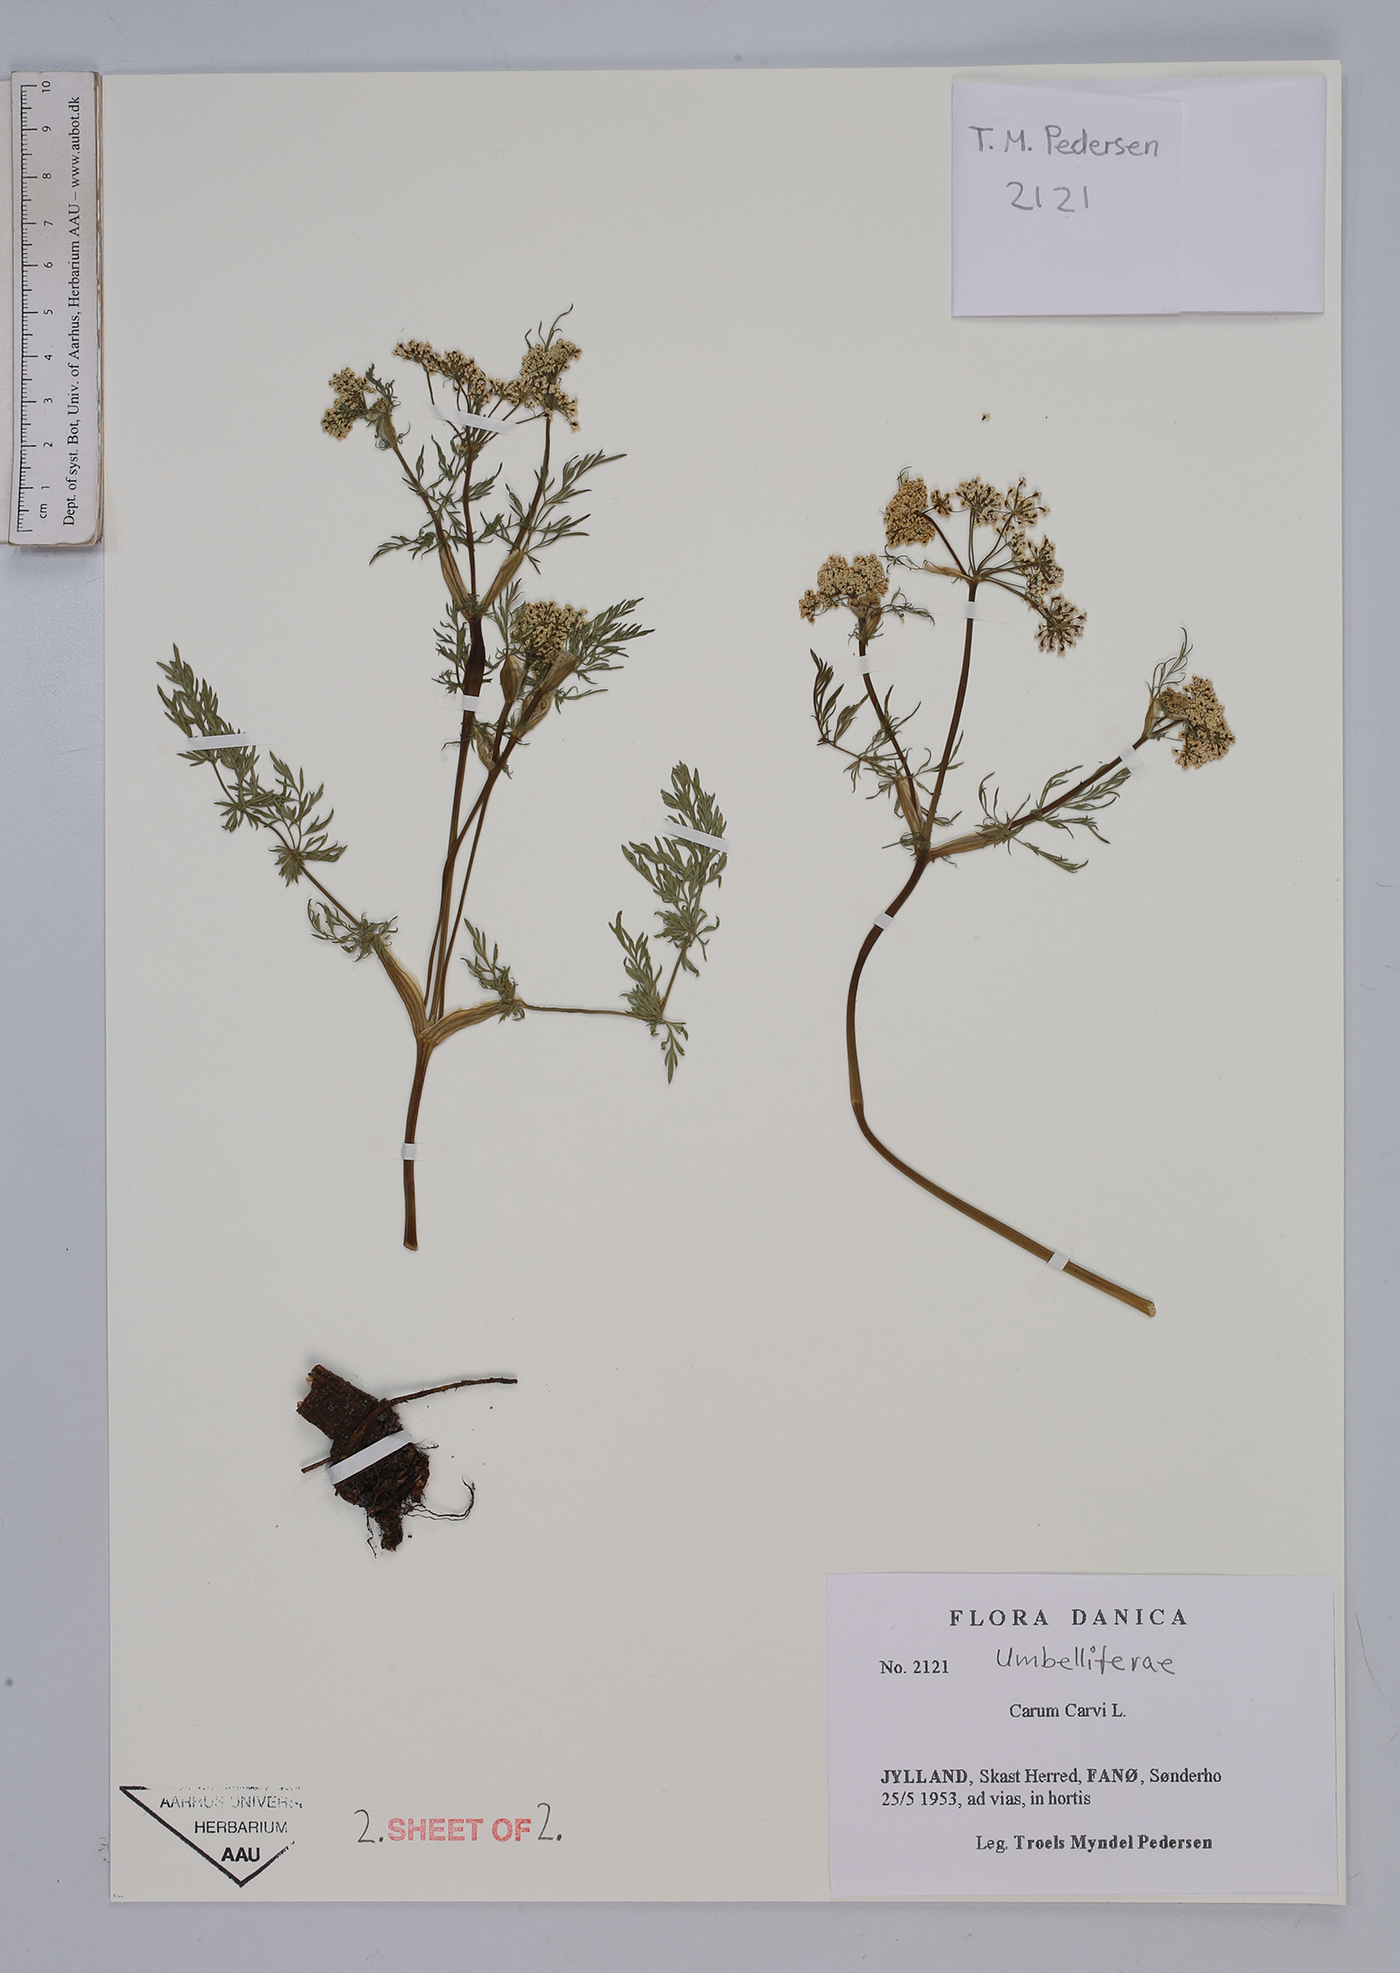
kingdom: Plantae
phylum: Tracheophyta
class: Magnoliopsida
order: Apiales
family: Apiaceae
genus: Carum
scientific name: Carum carvi
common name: Caraway
